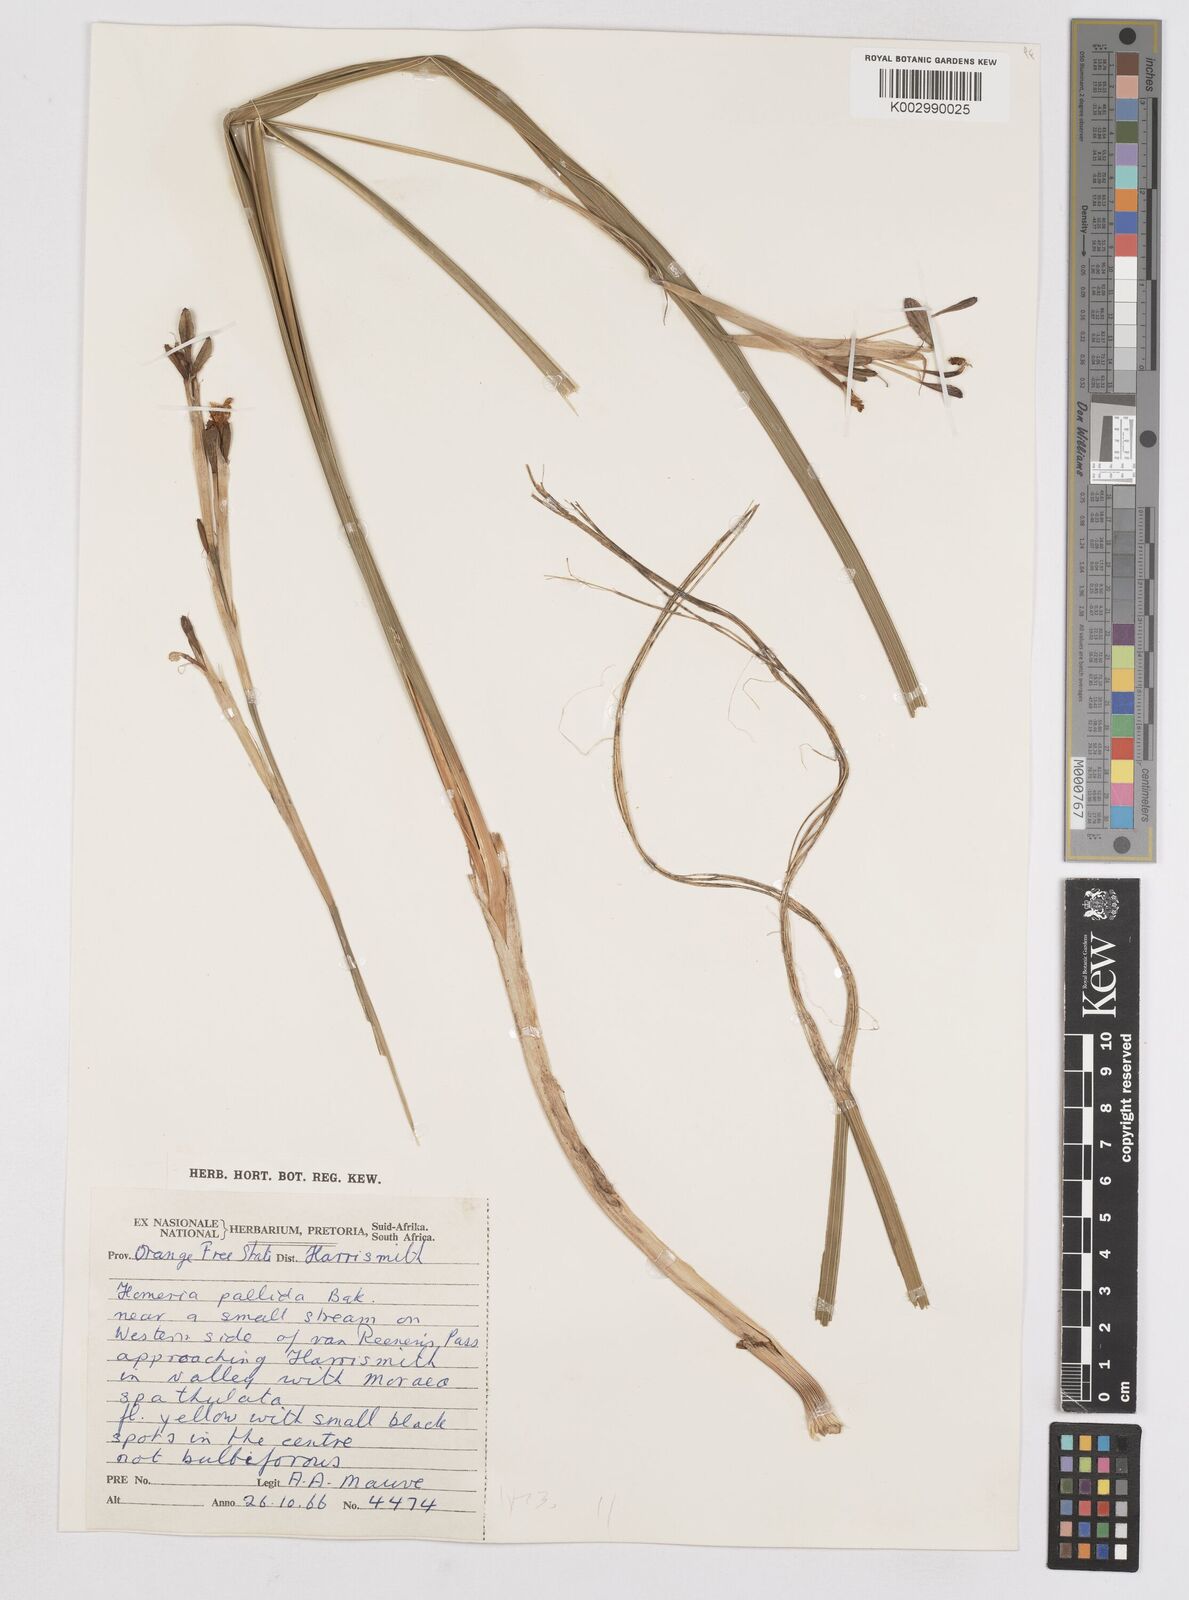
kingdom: Plantae
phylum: Tracheophyta
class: Liliopsida
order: Asparagales
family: Iridaceae
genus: Moraea
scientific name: Moraea pallida
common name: Yellow tulp
